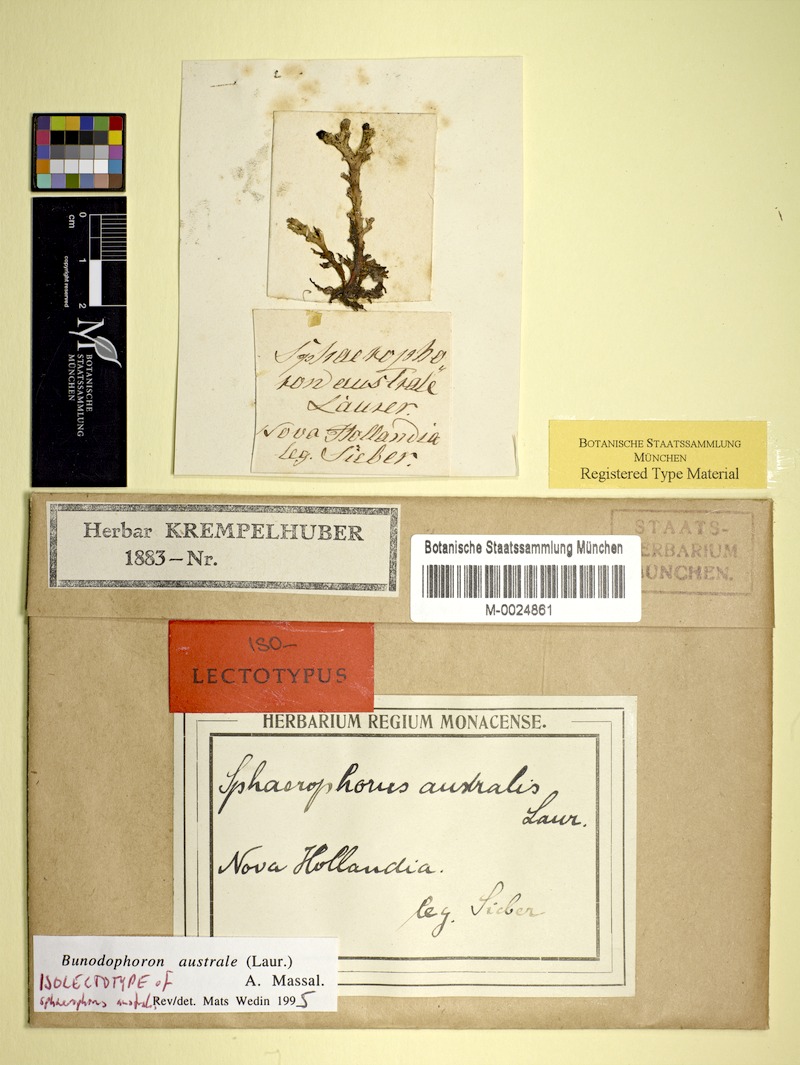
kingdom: Fungi
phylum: Ascomycota
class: Lecanoromycetes
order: Lecanorales
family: Sphaerophoraceae
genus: Bunodophoron
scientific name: Bunodophoron australe
